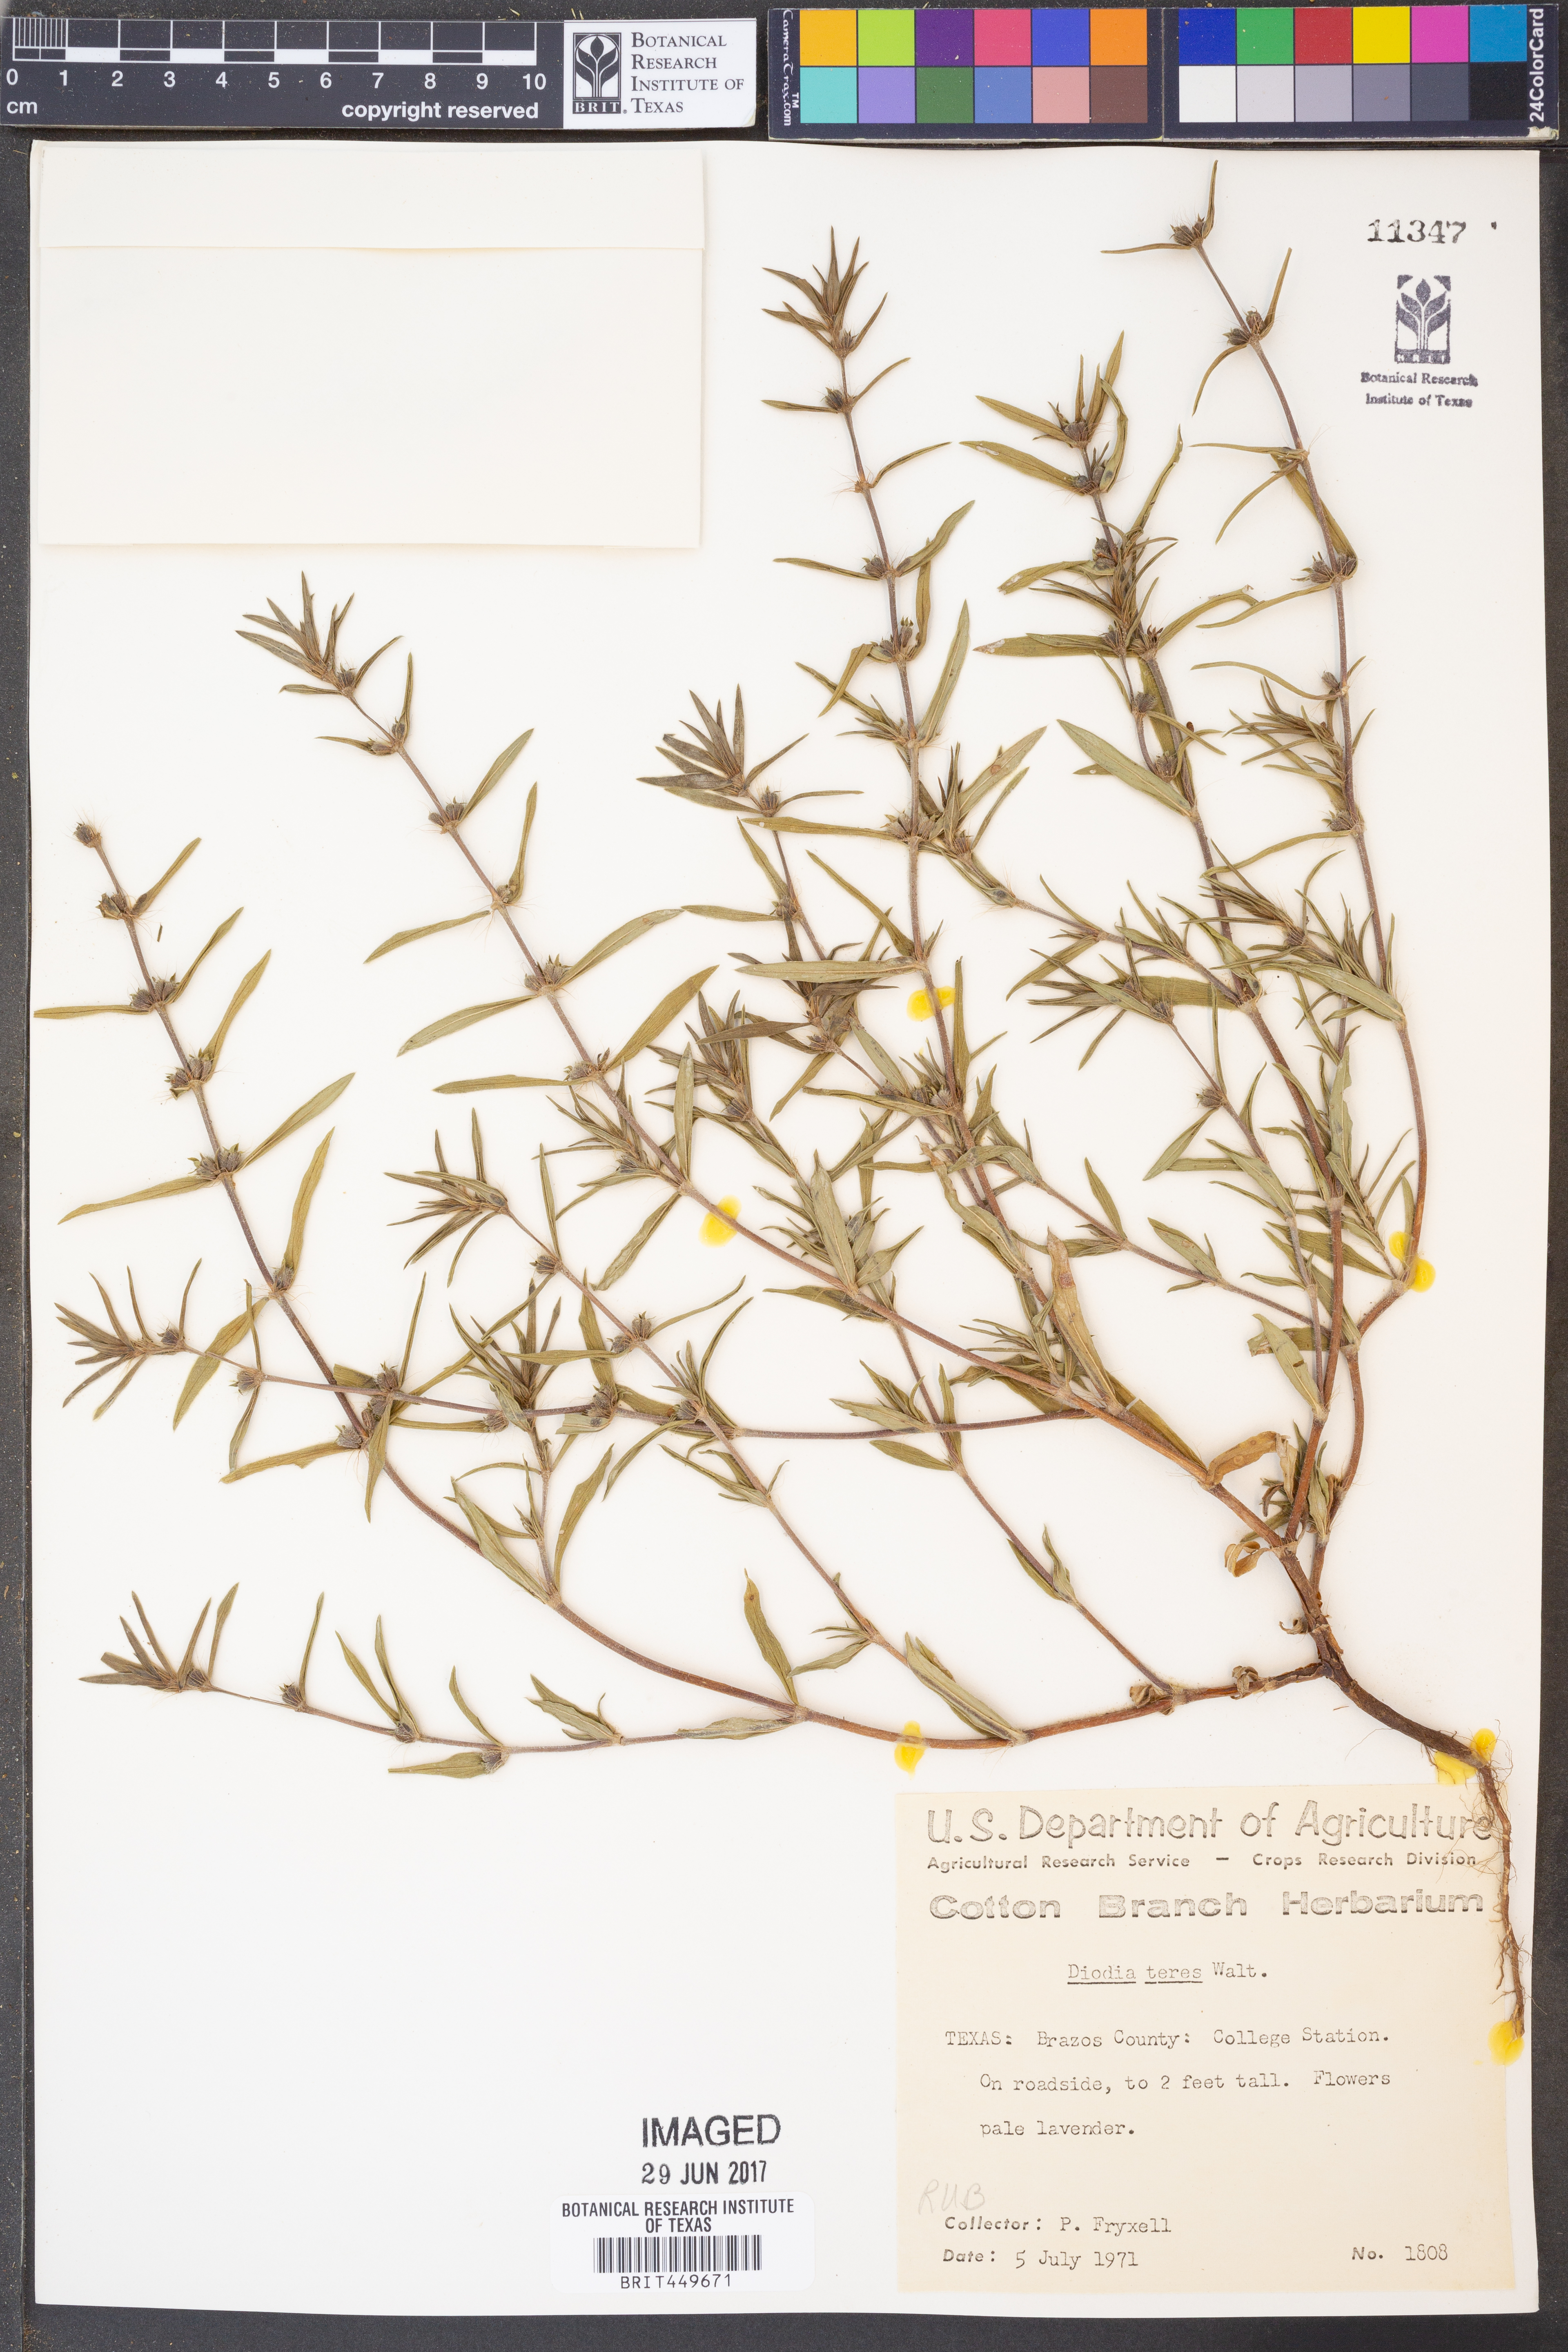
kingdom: Plantae
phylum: Tracheophyta
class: Magnoliopsida
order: Gentianales
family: Rubiaceae
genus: Hexasepalum
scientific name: Hexasepalum teres
